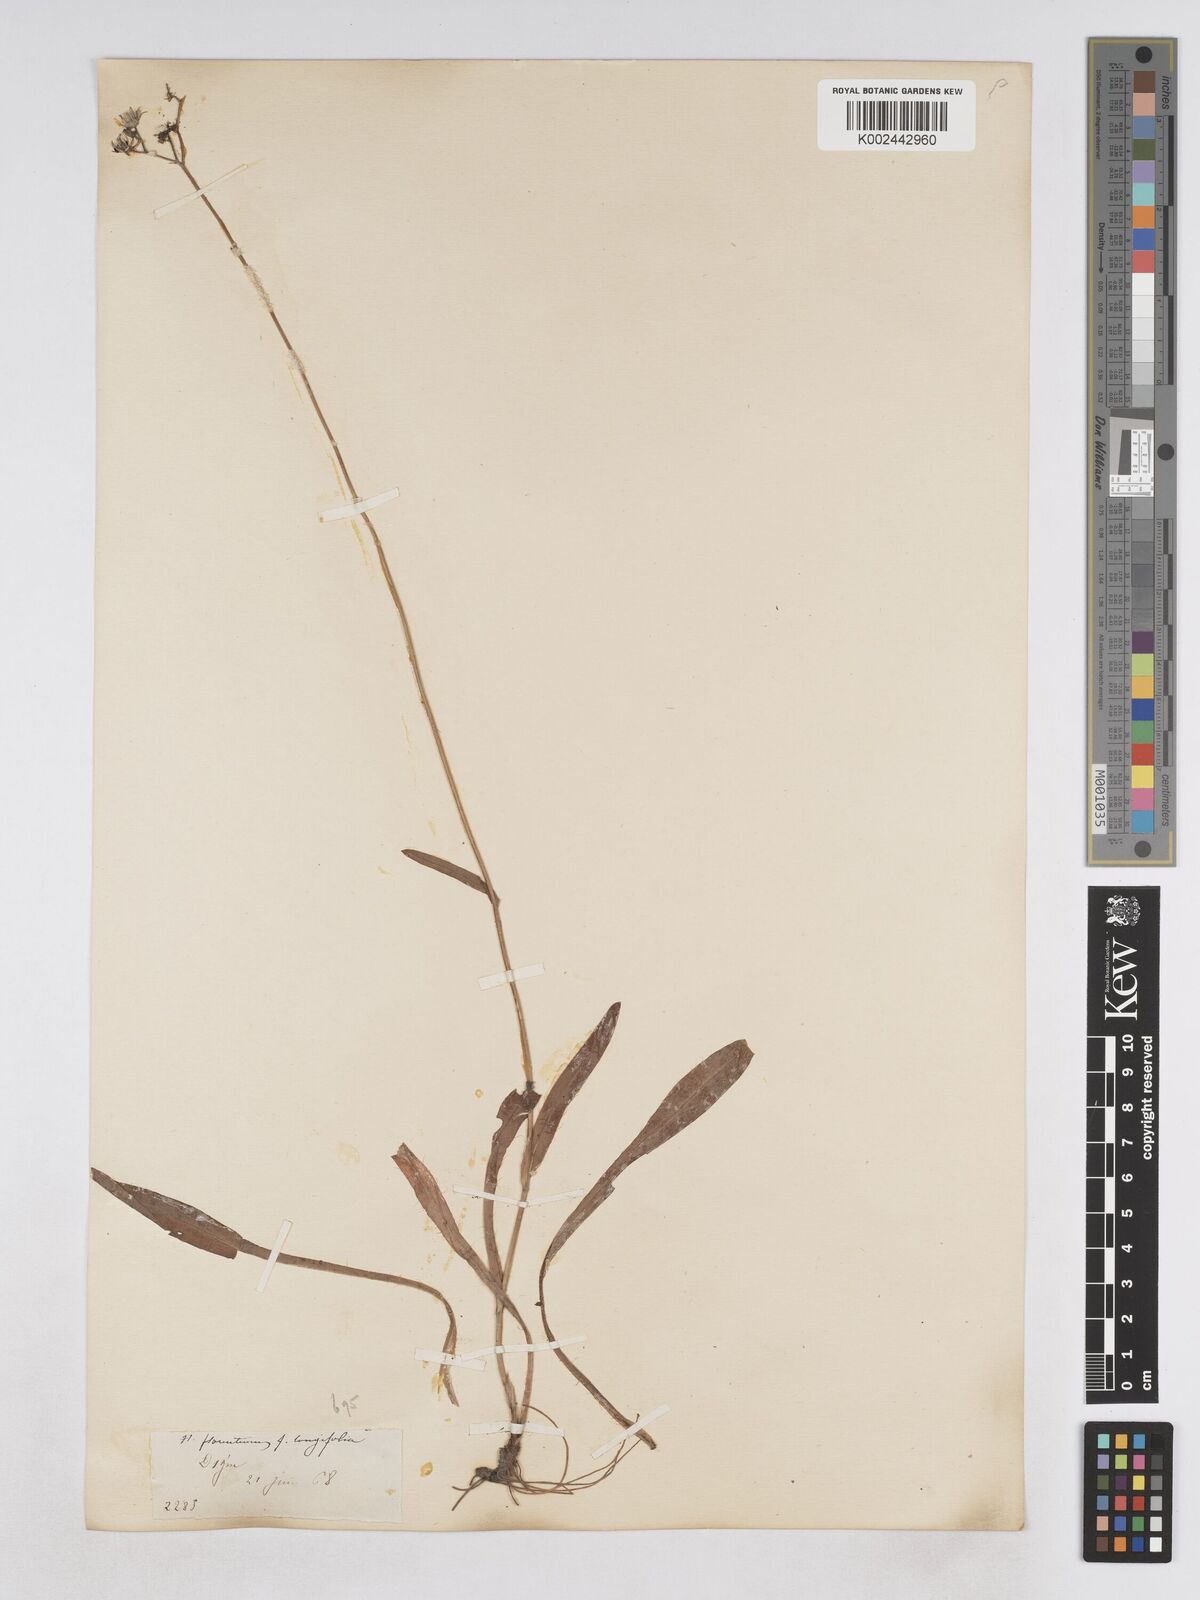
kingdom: Plantae
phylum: Tracheophyta
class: Magnoliopsida
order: Asterales
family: Asteraceae
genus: Pilosella
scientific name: Pilosella piloselloides
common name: Glaucous king-devil
